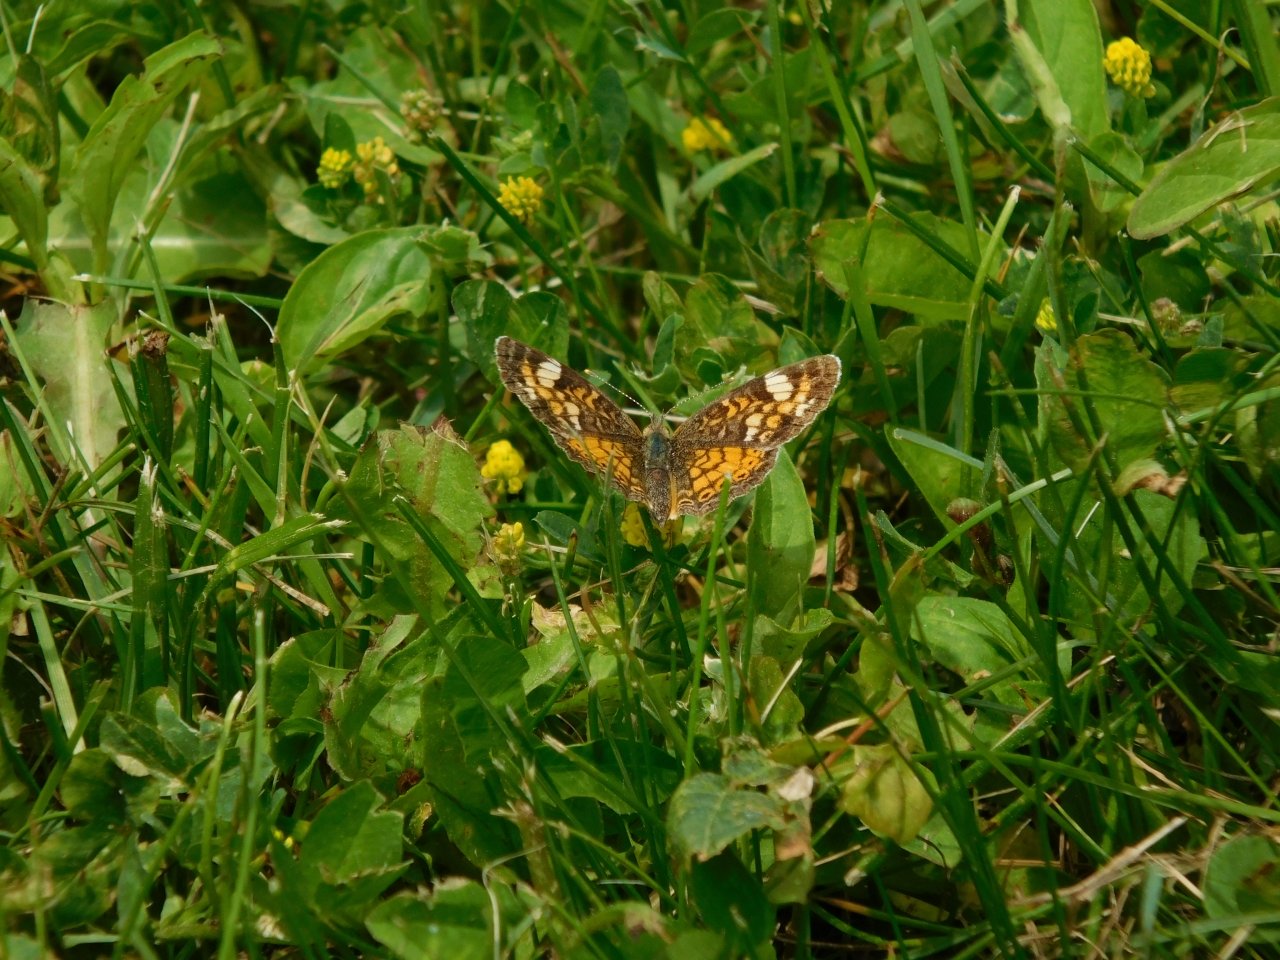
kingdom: Animalia
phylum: Arthropoda
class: Insecta
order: Lepidoptera
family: Nymphalidae
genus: Phyciodes
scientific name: Phyciodes tharos
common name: Pearl Crescent
